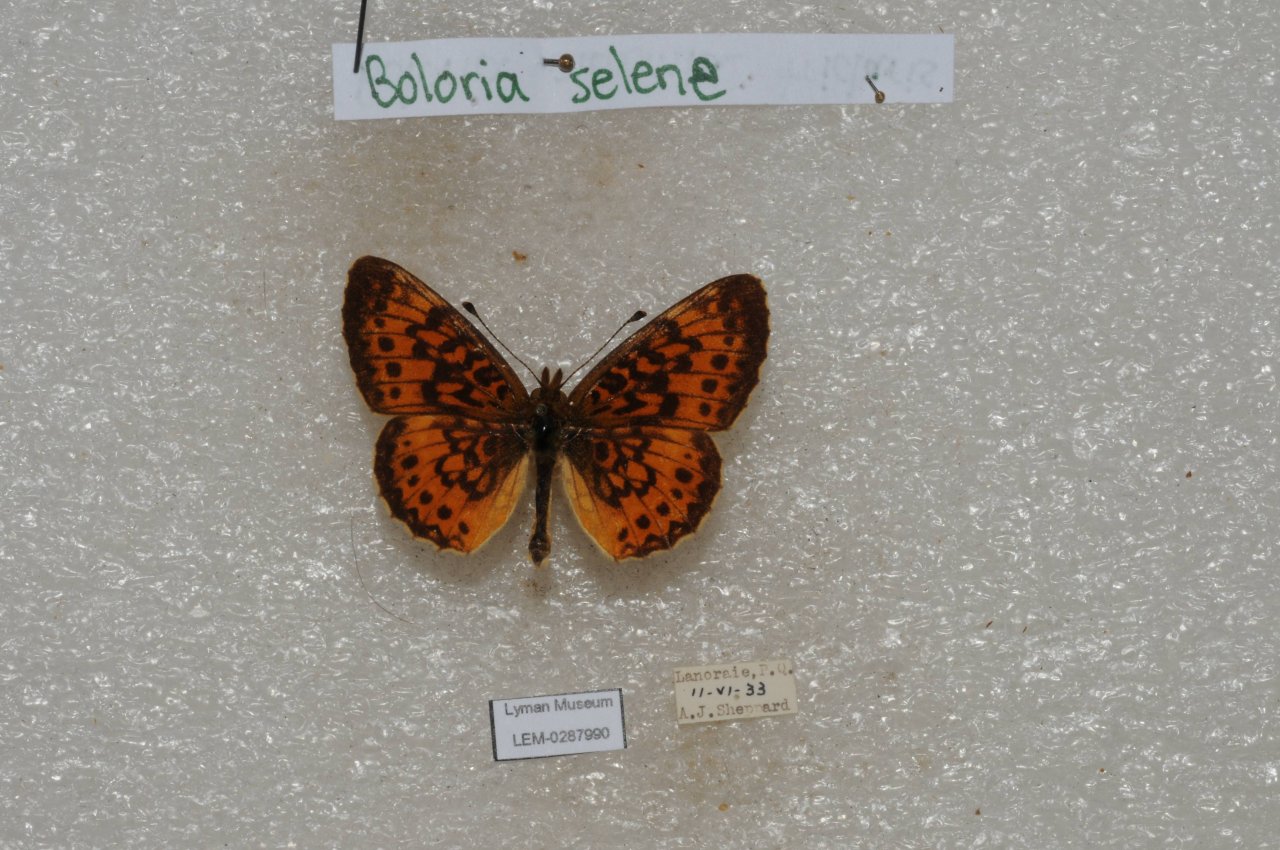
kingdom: Animalia
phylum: Arthropoda
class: Insecta
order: Lepidoptera
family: Nymphalidae
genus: Boloria
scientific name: Boloria selene
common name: Silver-bordered Fritillary
